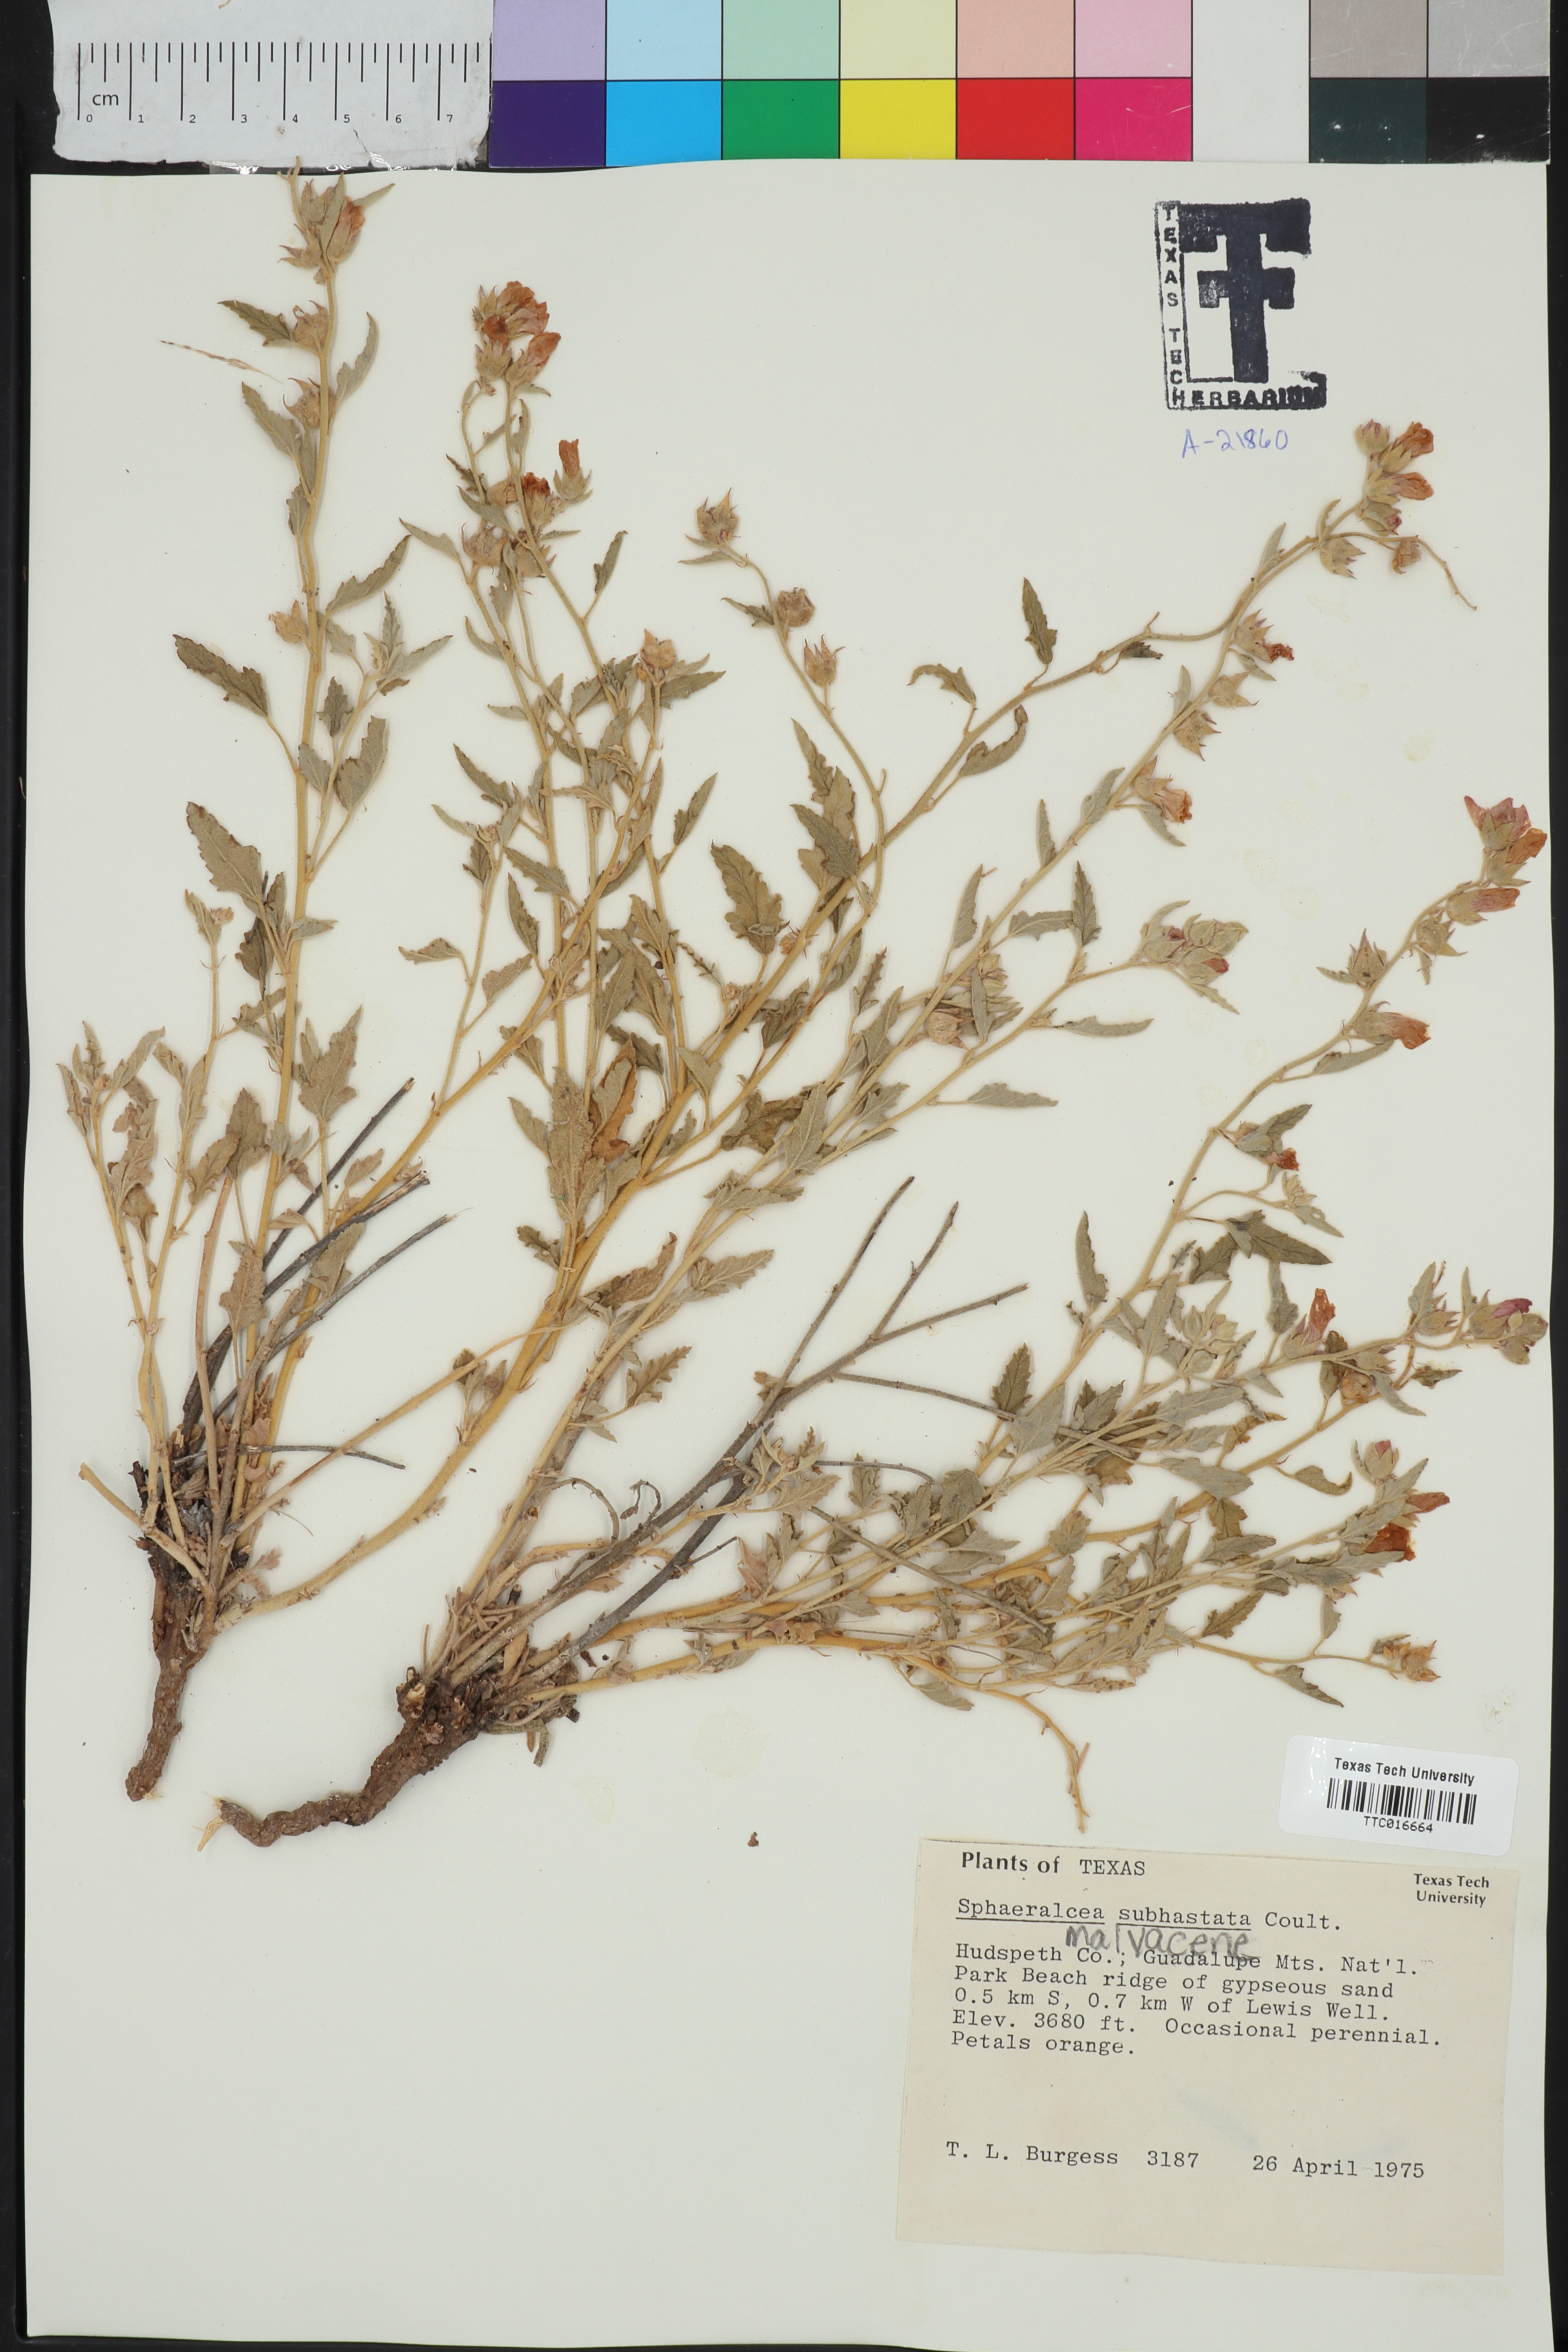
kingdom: Plantae
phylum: Tracheophyta
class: Magnoliopsida
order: Malvales
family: Malvaceae
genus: Sphaeralcea
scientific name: Sphaeralcea hastulata
